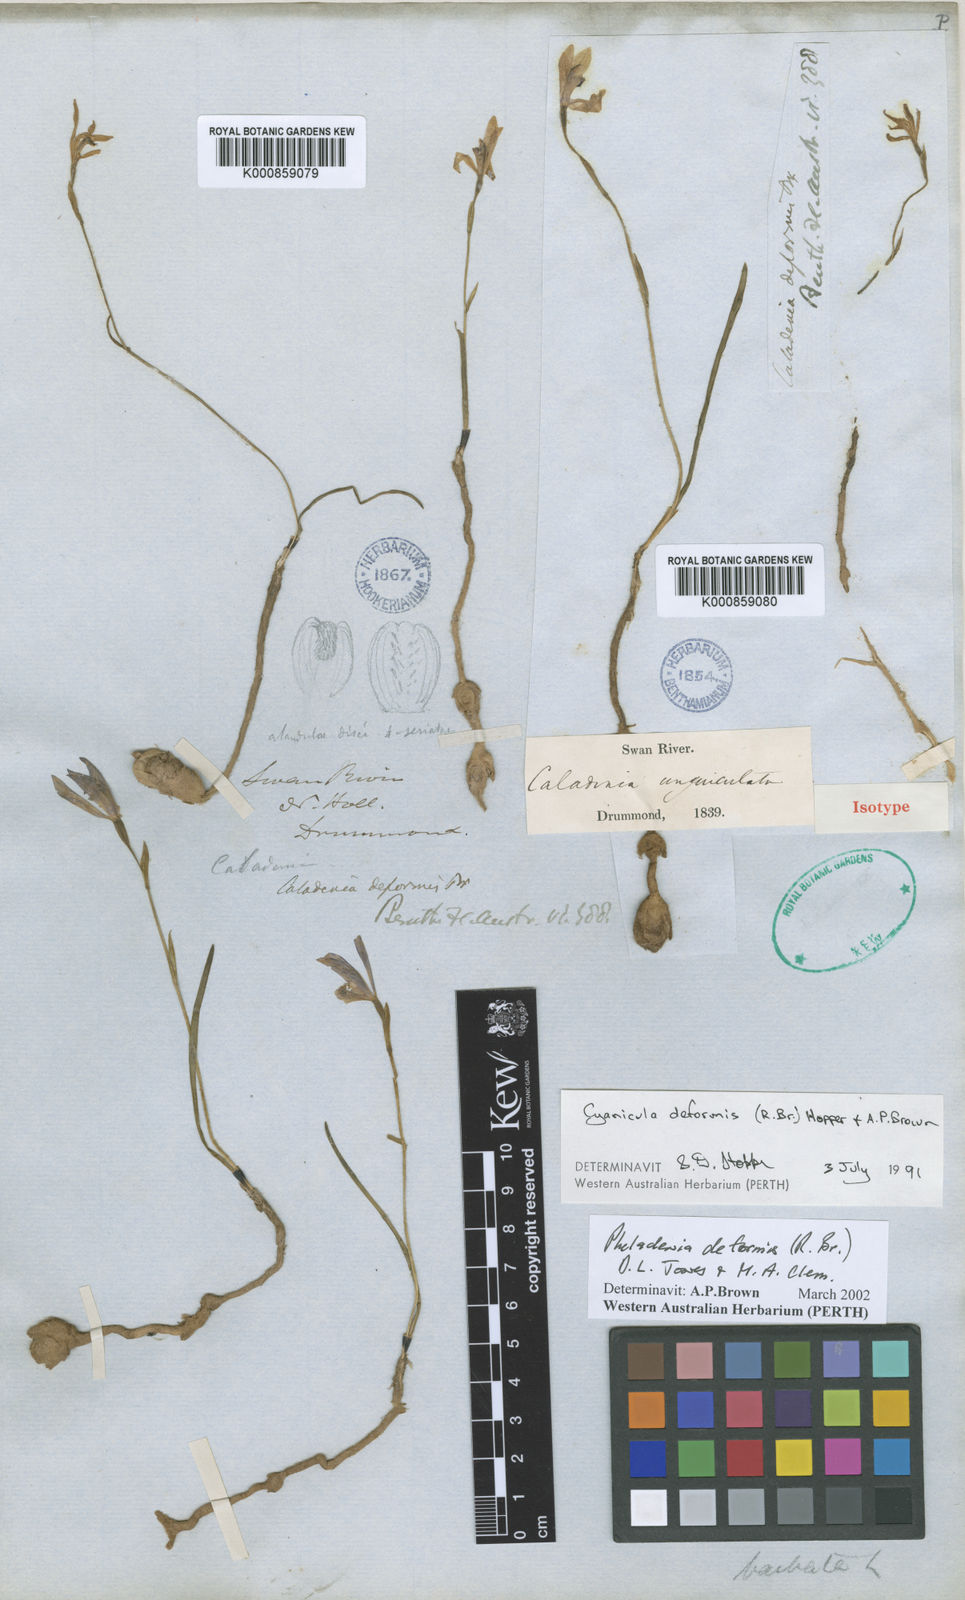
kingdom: Plantae
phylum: Tracheophyta
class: Liliopsida
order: Asparagales
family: Orchidaceae
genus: Pheladenia
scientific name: Pheladenia deformis
